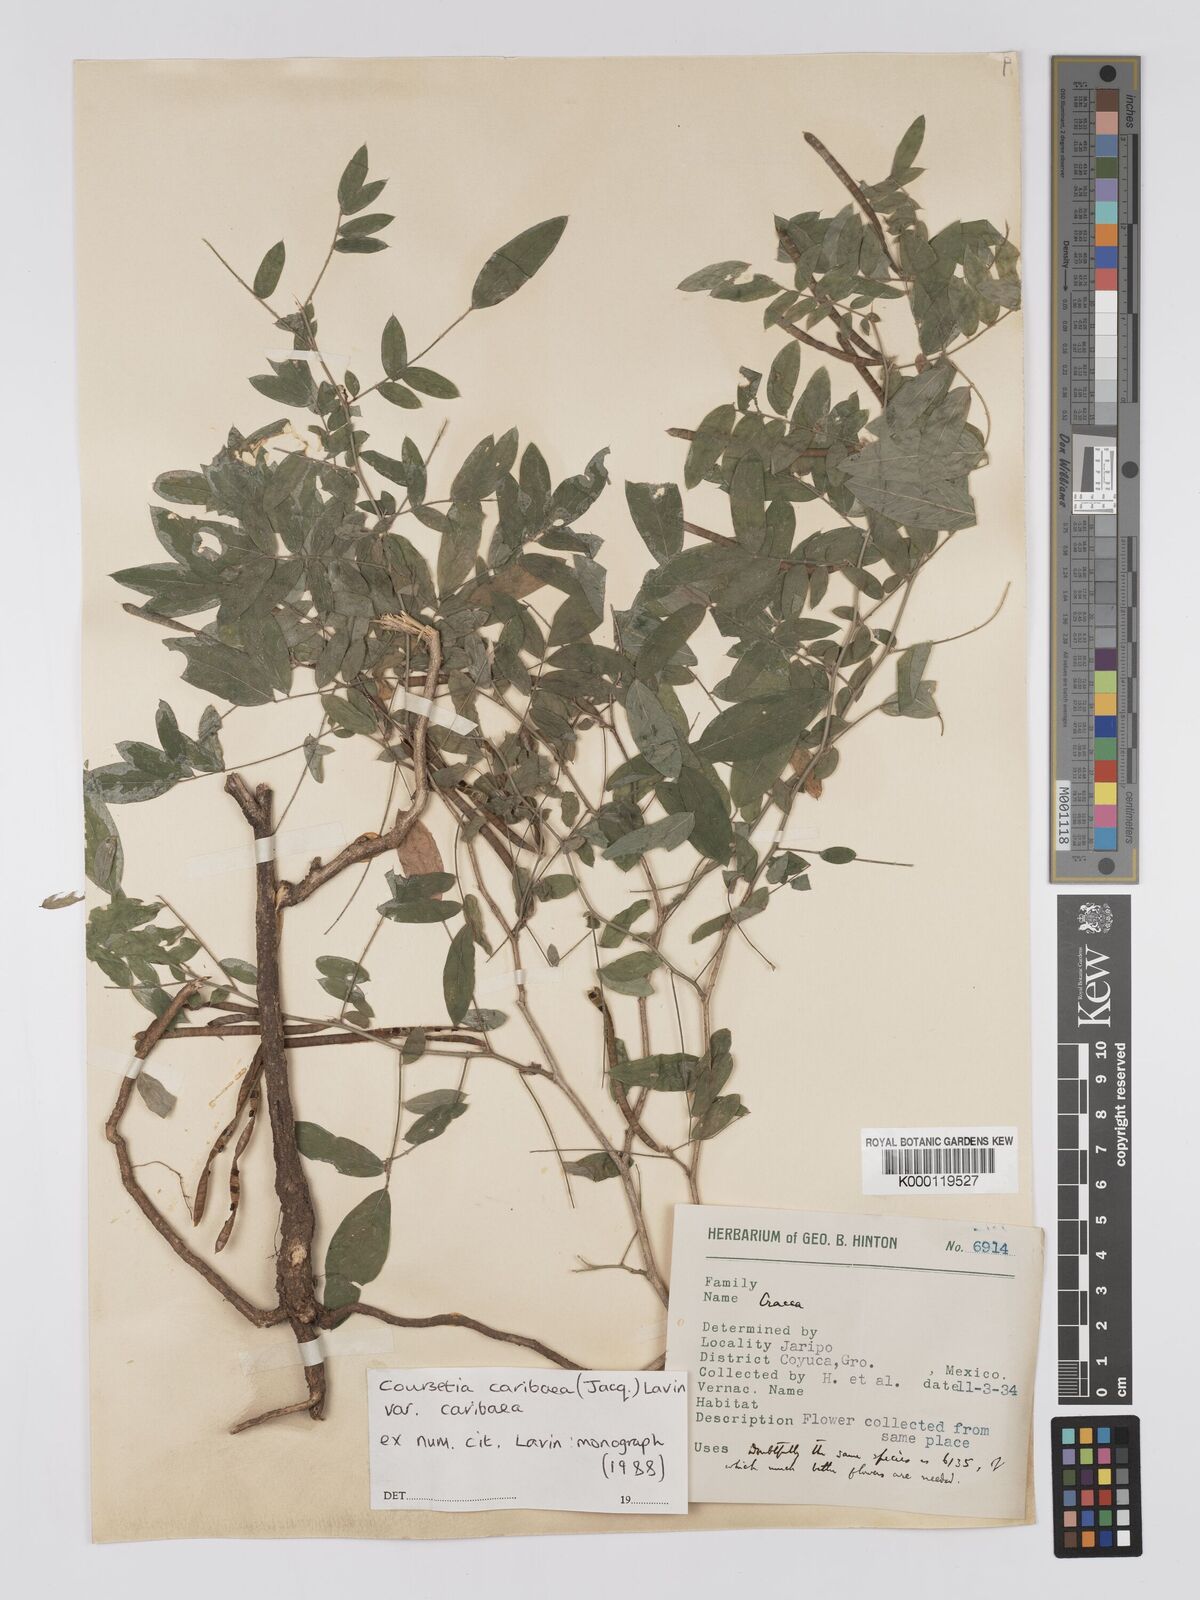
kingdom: Plantae
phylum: Tracheophyta
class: Magnoliopsida
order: Fabales
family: Fabaceae
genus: Coursetia
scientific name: Coursetia caribaea
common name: Anil falso
